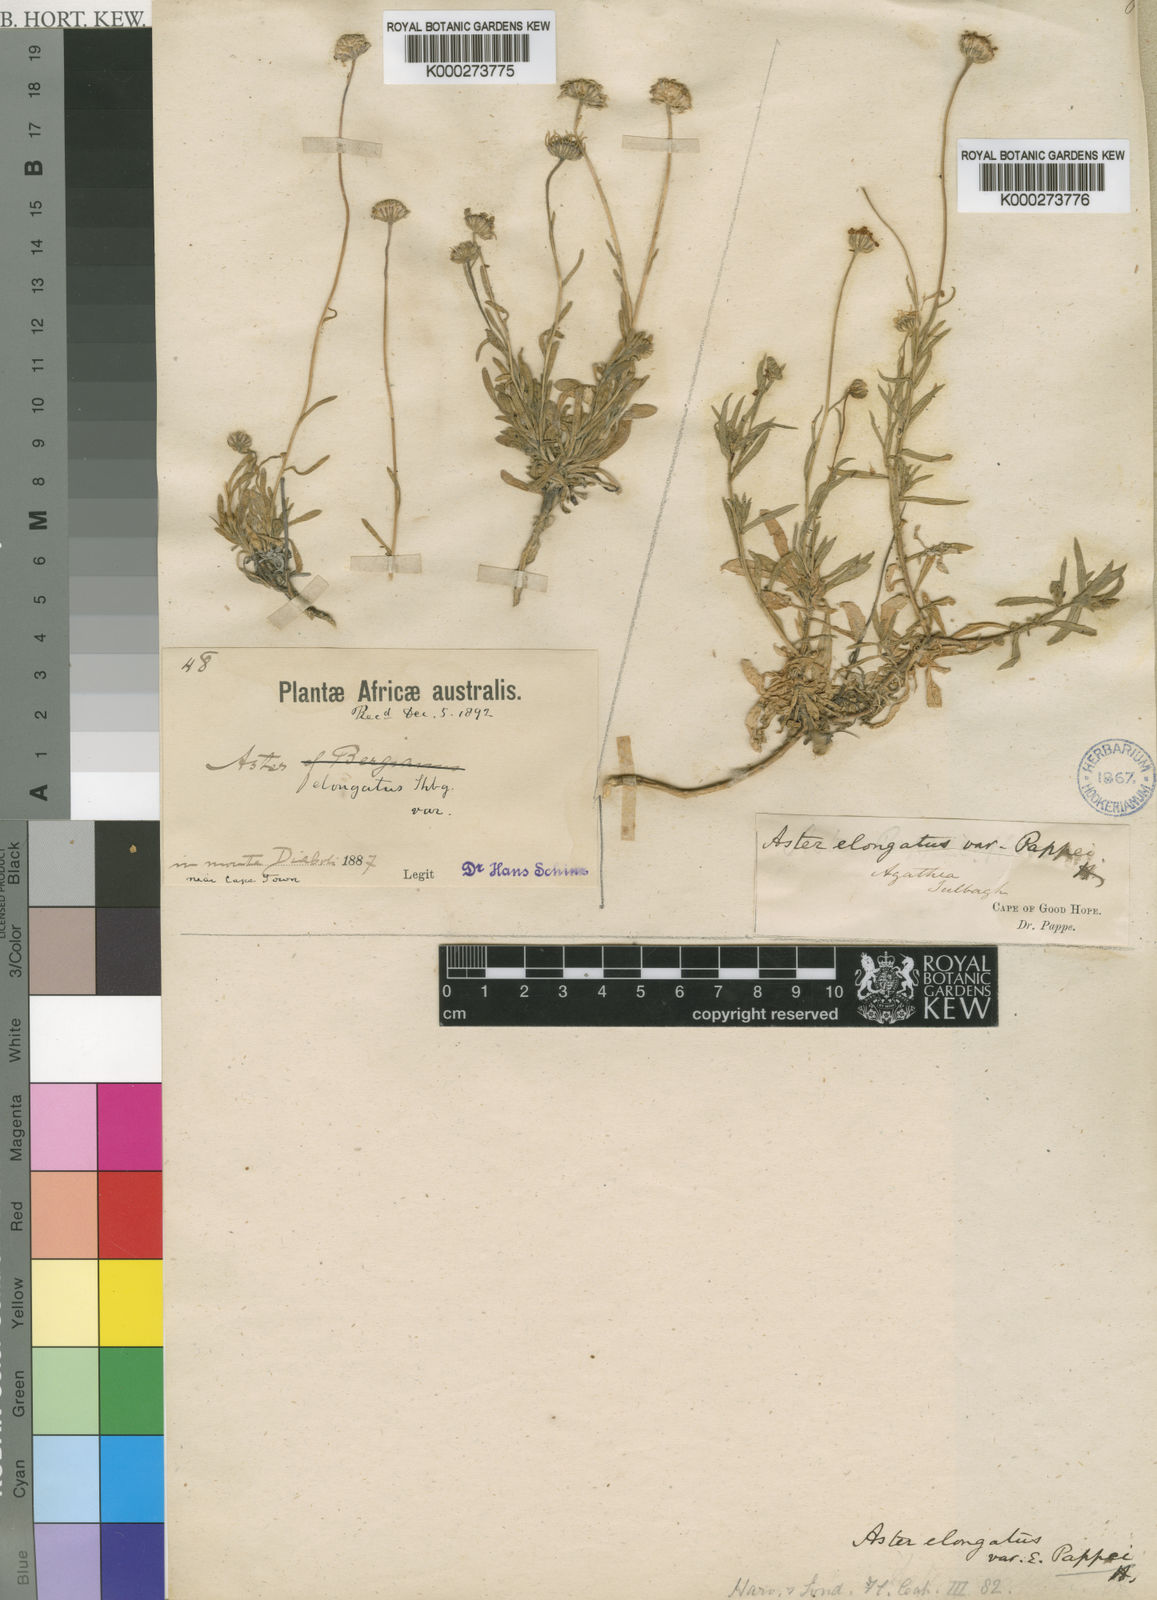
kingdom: Plantae
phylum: Tracheophyta
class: Magnoliopsida
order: Asterales
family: Asteraceae
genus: Felicia
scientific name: Felicia elongata
